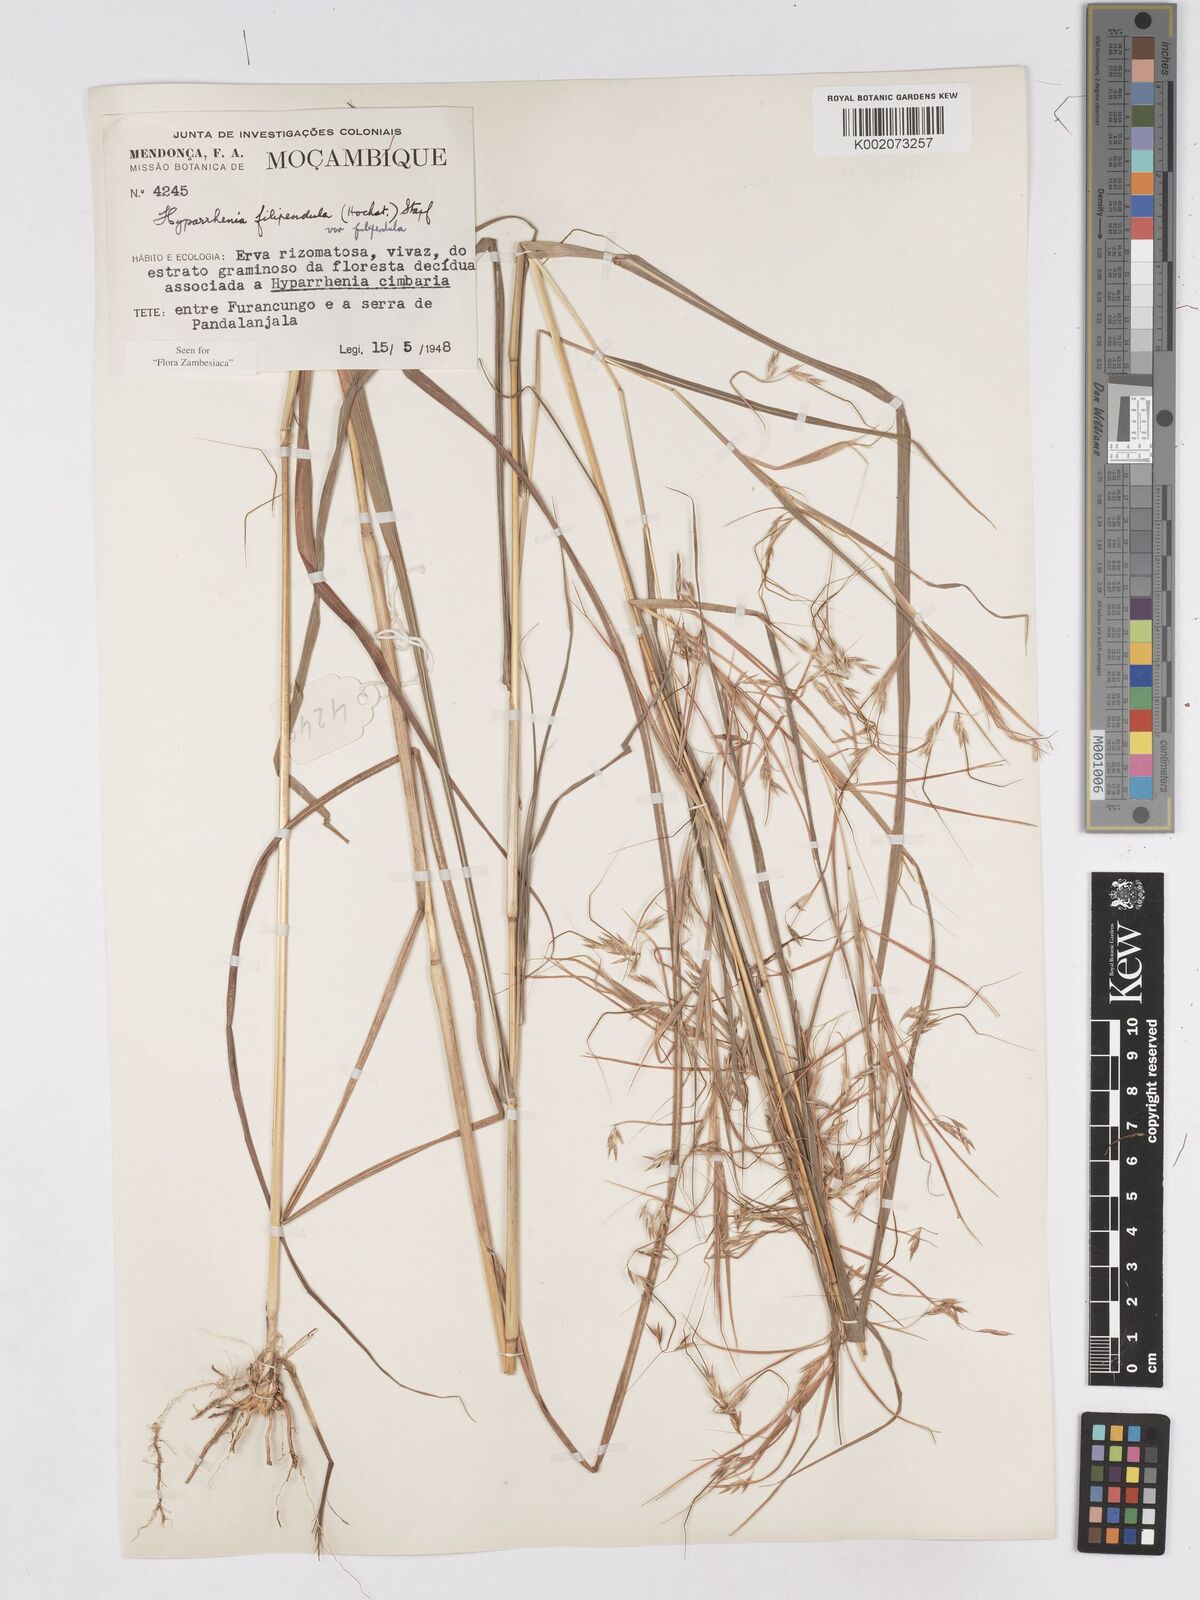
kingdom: Plantae
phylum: Tracheophyta
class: Liliopsida
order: Poales
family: Poaceae
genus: Hyparrhenia
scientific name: Hyparrhenia filipendula
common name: Tambookie grass
